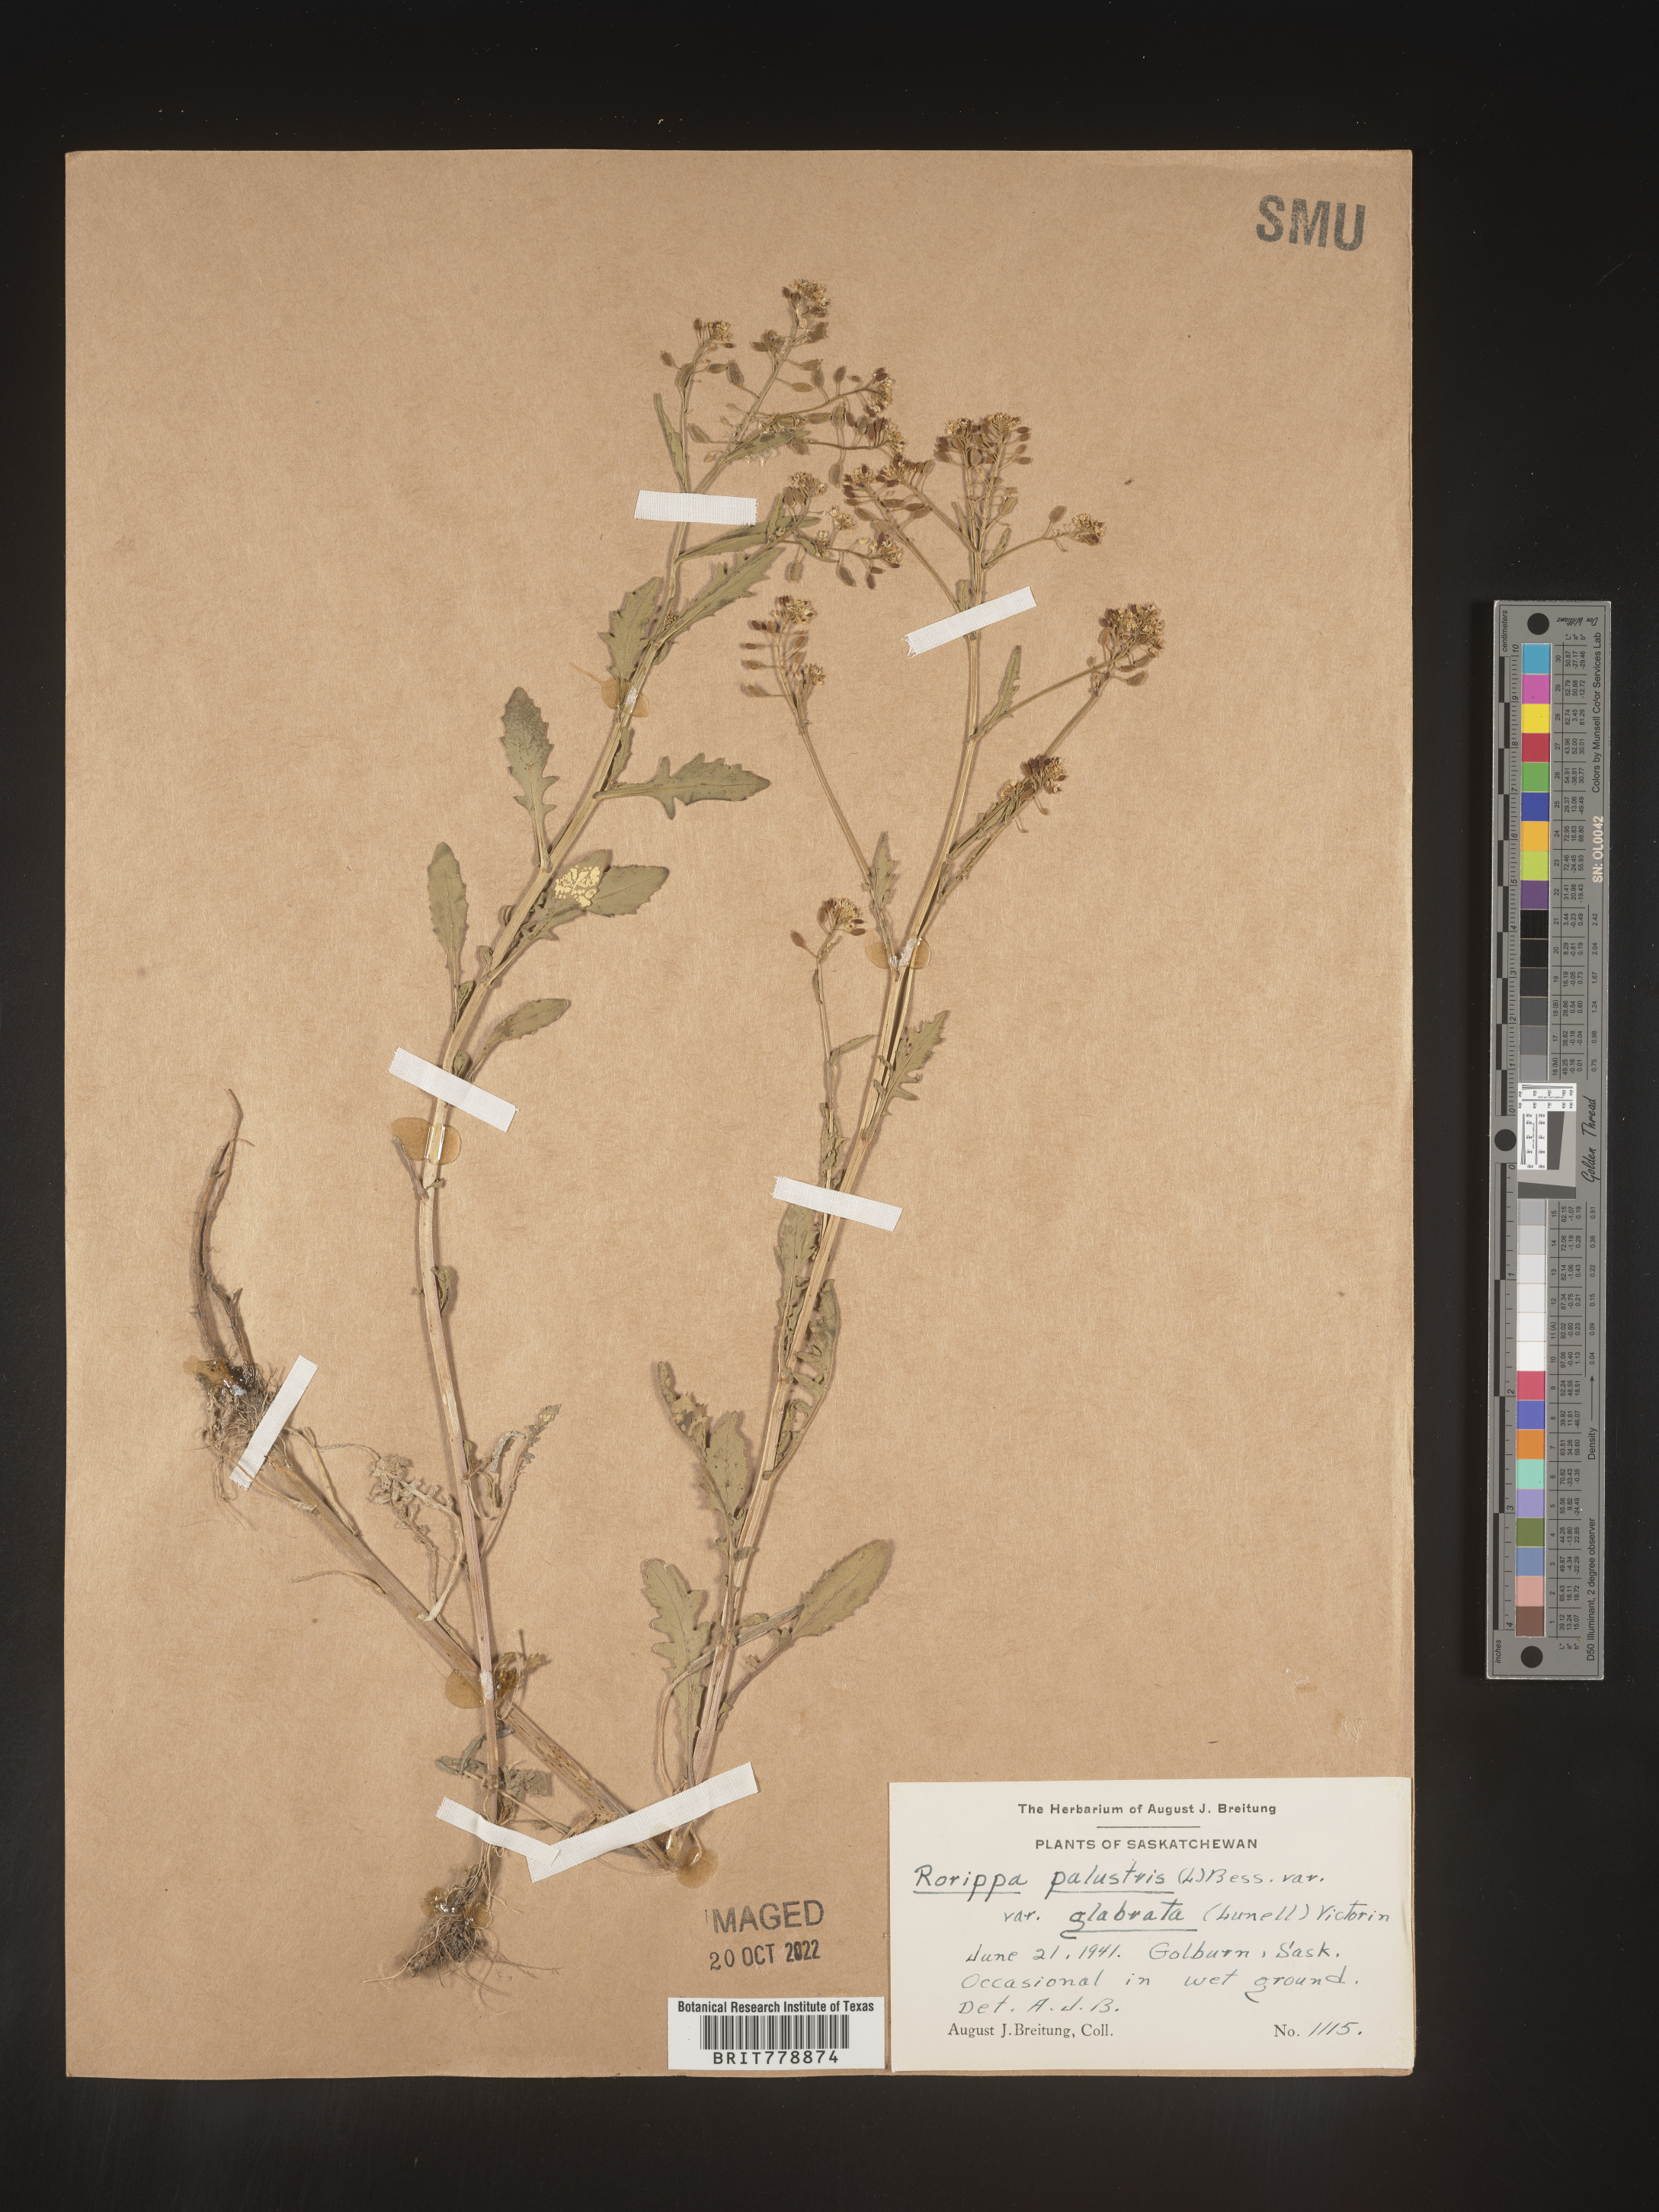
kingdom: Plantae
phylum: Tracheophyta
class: Magnoliopsida
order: Brassicales
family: Brassicaceae
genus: Rorippa
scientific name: Rorippa palustris
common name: Marsh yellow-cress
